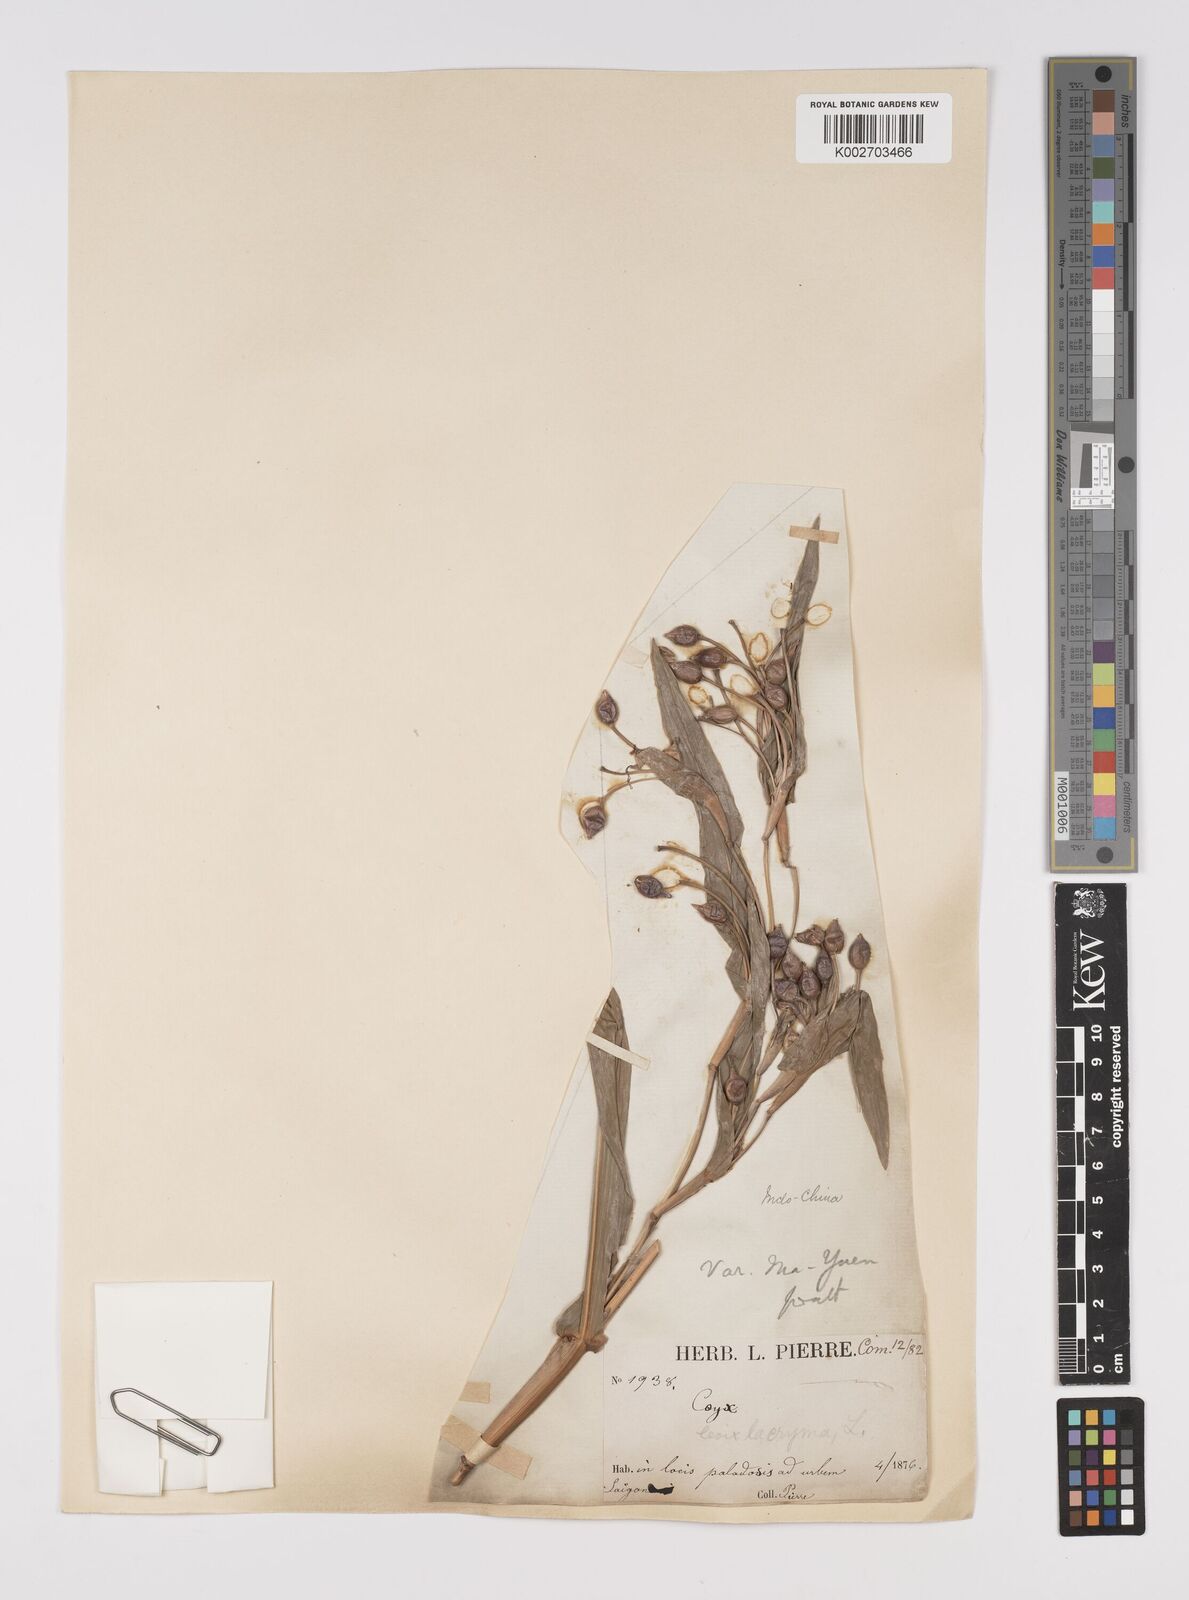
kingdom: Plantae
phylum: Tracheophyta
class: Liliopsida
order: Poales
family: Poaceae
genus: Coix
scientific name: Coix lacryma-jobi
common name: Job's tears
